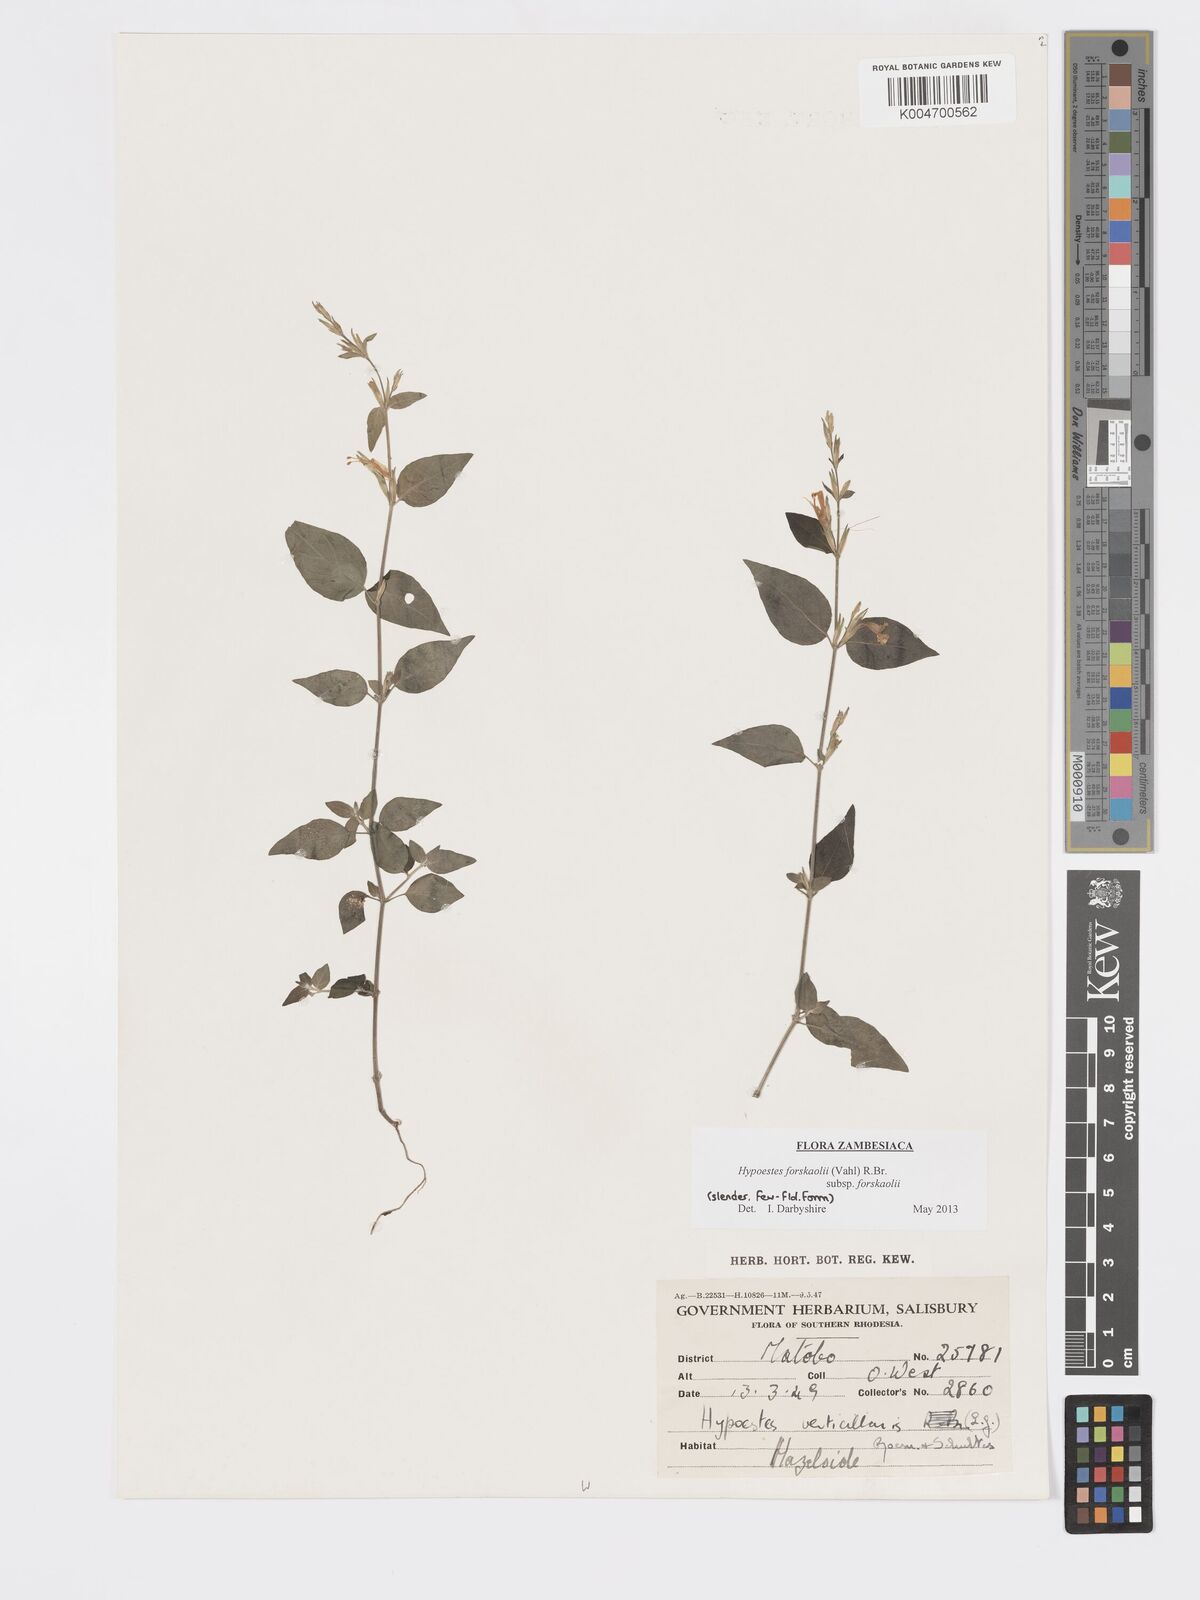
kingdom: Plantae
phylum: Tracheophyta
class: Magnoliopsida
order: Lamiales
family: Acanthaceae
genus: Hypoestes
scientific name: Hypoestes forskaolii
